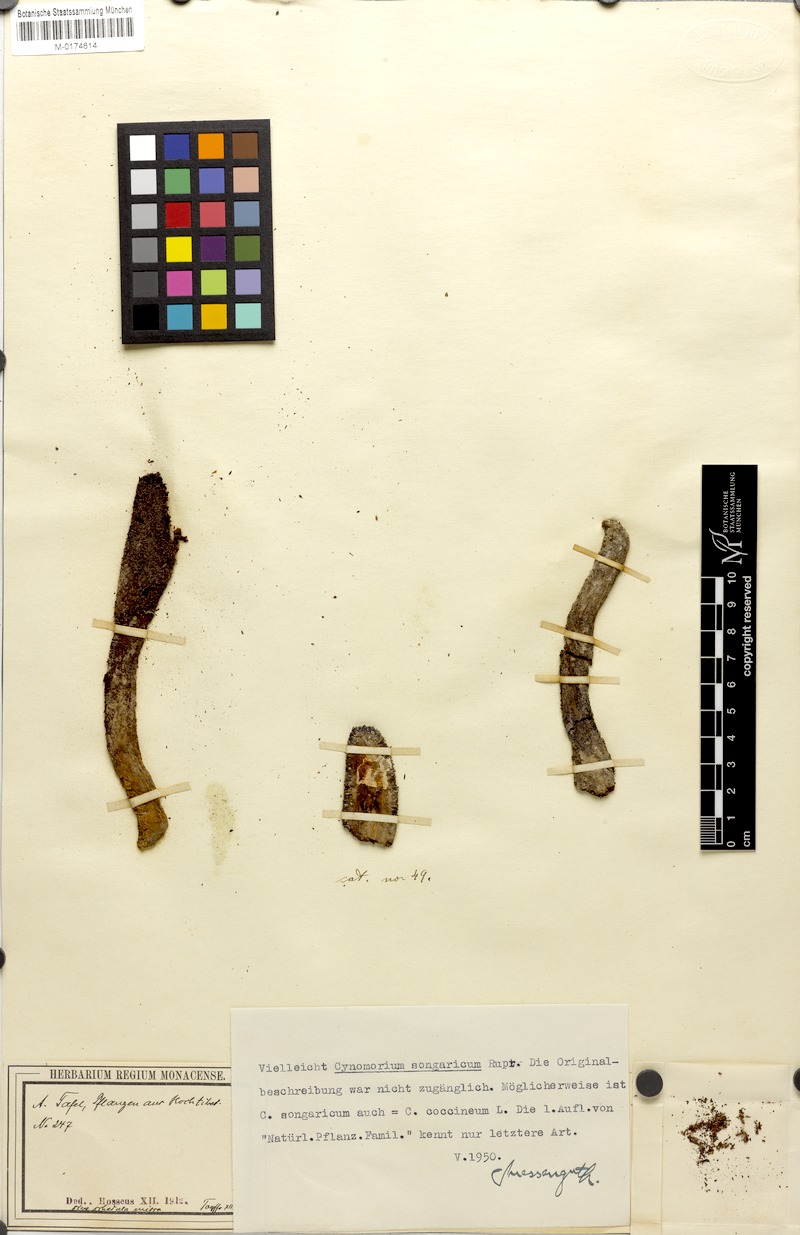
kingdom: Plantae
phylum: Tracheophyta
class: Magnoliopsida
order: Saxifragales
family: Cynomoriaceae
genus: Cynomorium
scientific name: Cynomorium coccineum
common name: Maltese-mushroom
